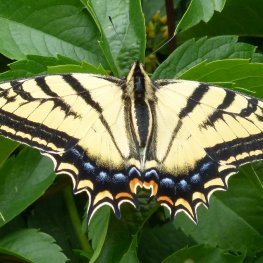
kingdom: Animalia
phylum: Arthropoda
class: Insecta
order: Lepidoptera
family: Papilionidae
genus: Papilio
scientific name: Papilio multicaudata
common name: Two-tailed Swallowtail
